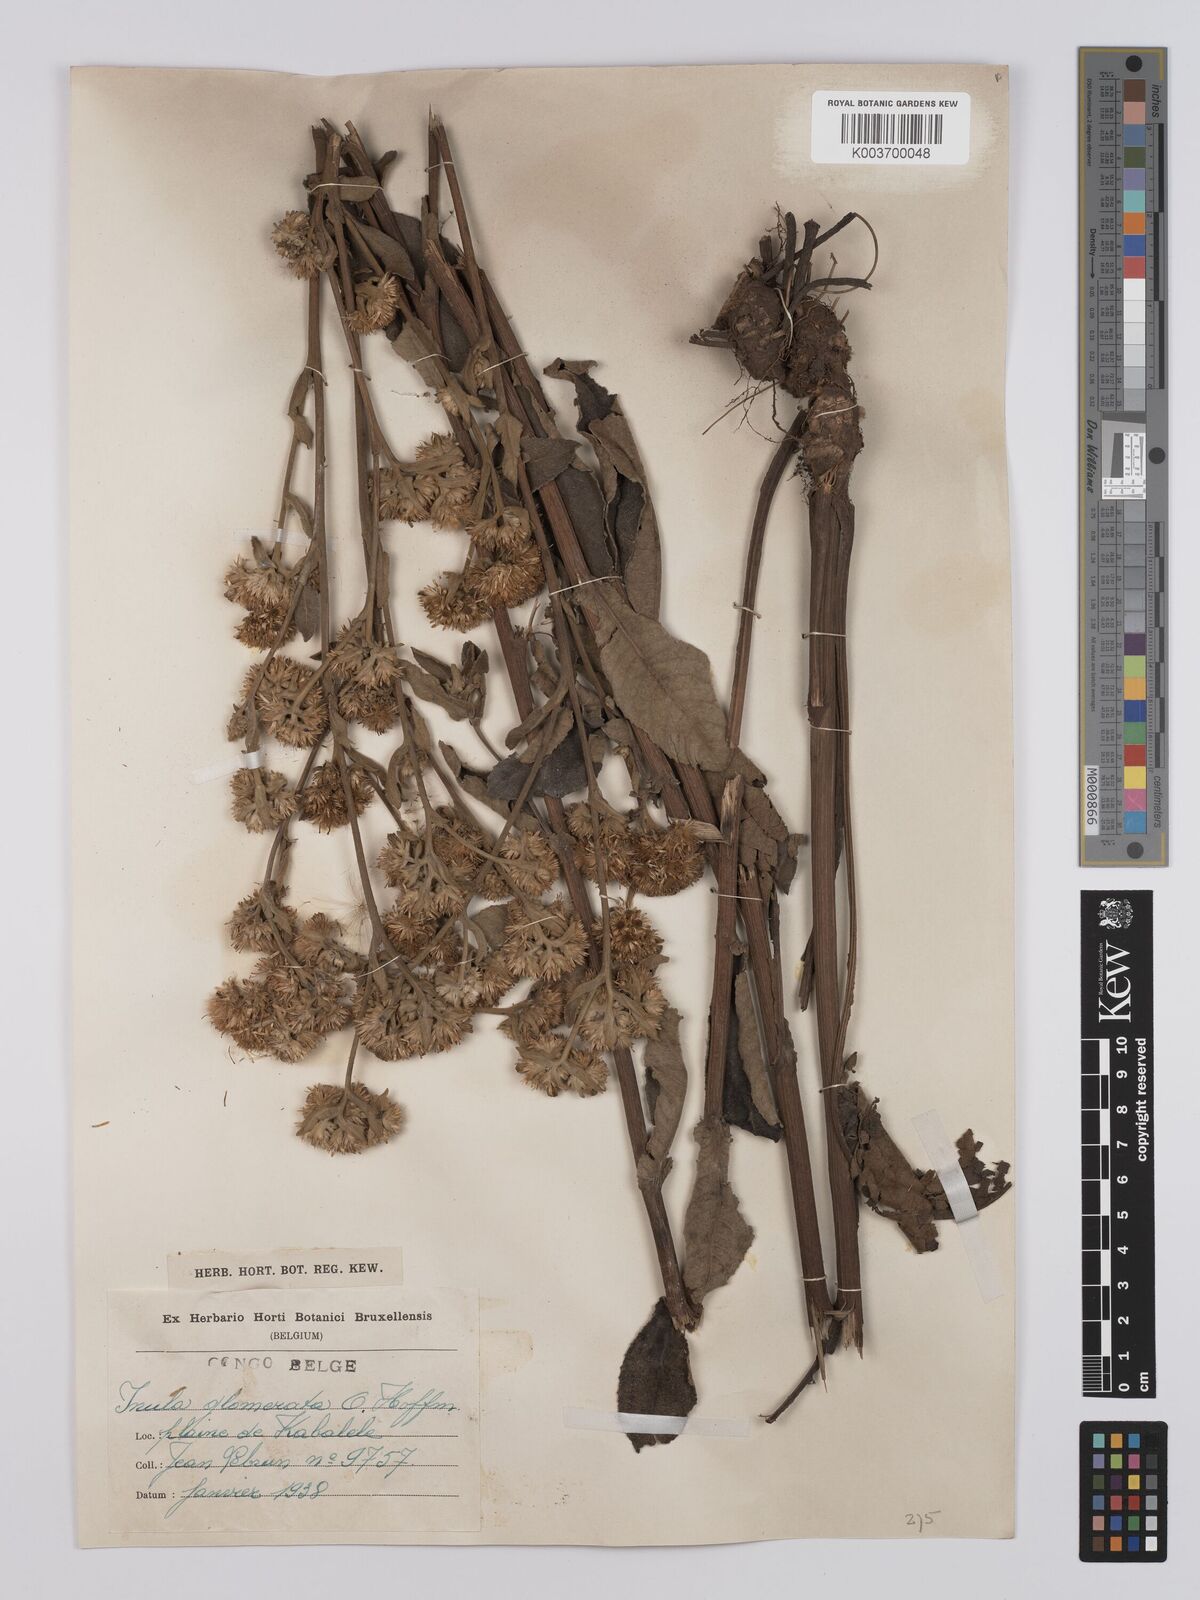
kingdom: Plantae
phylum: Tracheophyta
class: Magnoliopsida
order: Asterales
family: Asteraceae
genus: Inula
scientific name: Inula glomerata
